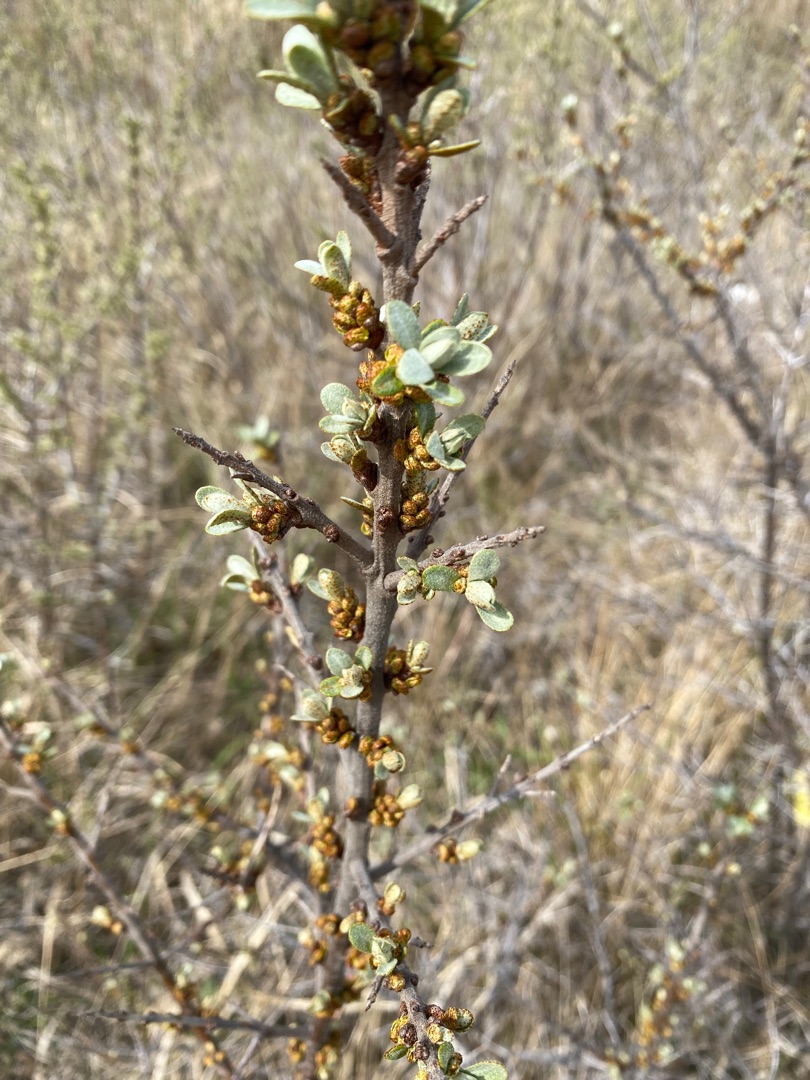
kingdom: Plantae
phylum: Tracheophyta
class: Magnoliopsida
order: Rosales
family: Elaeagnaceae
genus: Hippophae
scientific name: Hippophae rhamnoides
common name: Havtorn
